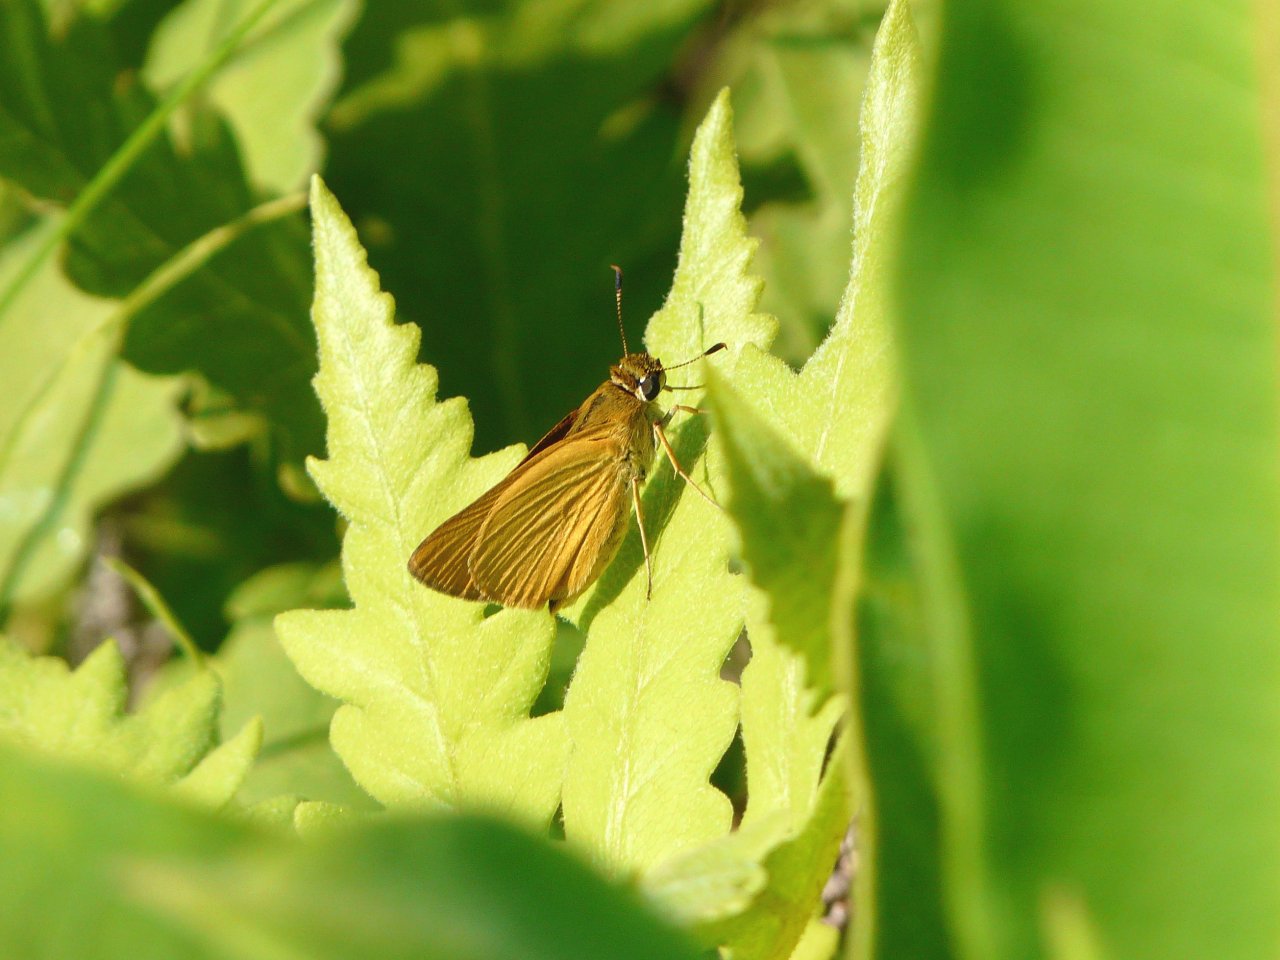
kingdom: Animalia
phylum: Arthropoda
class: Insecta
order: Lepidoptera
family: Hesperiidae
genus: Atrytone
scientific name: Atrytone delaware
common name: Delaware Skipper
